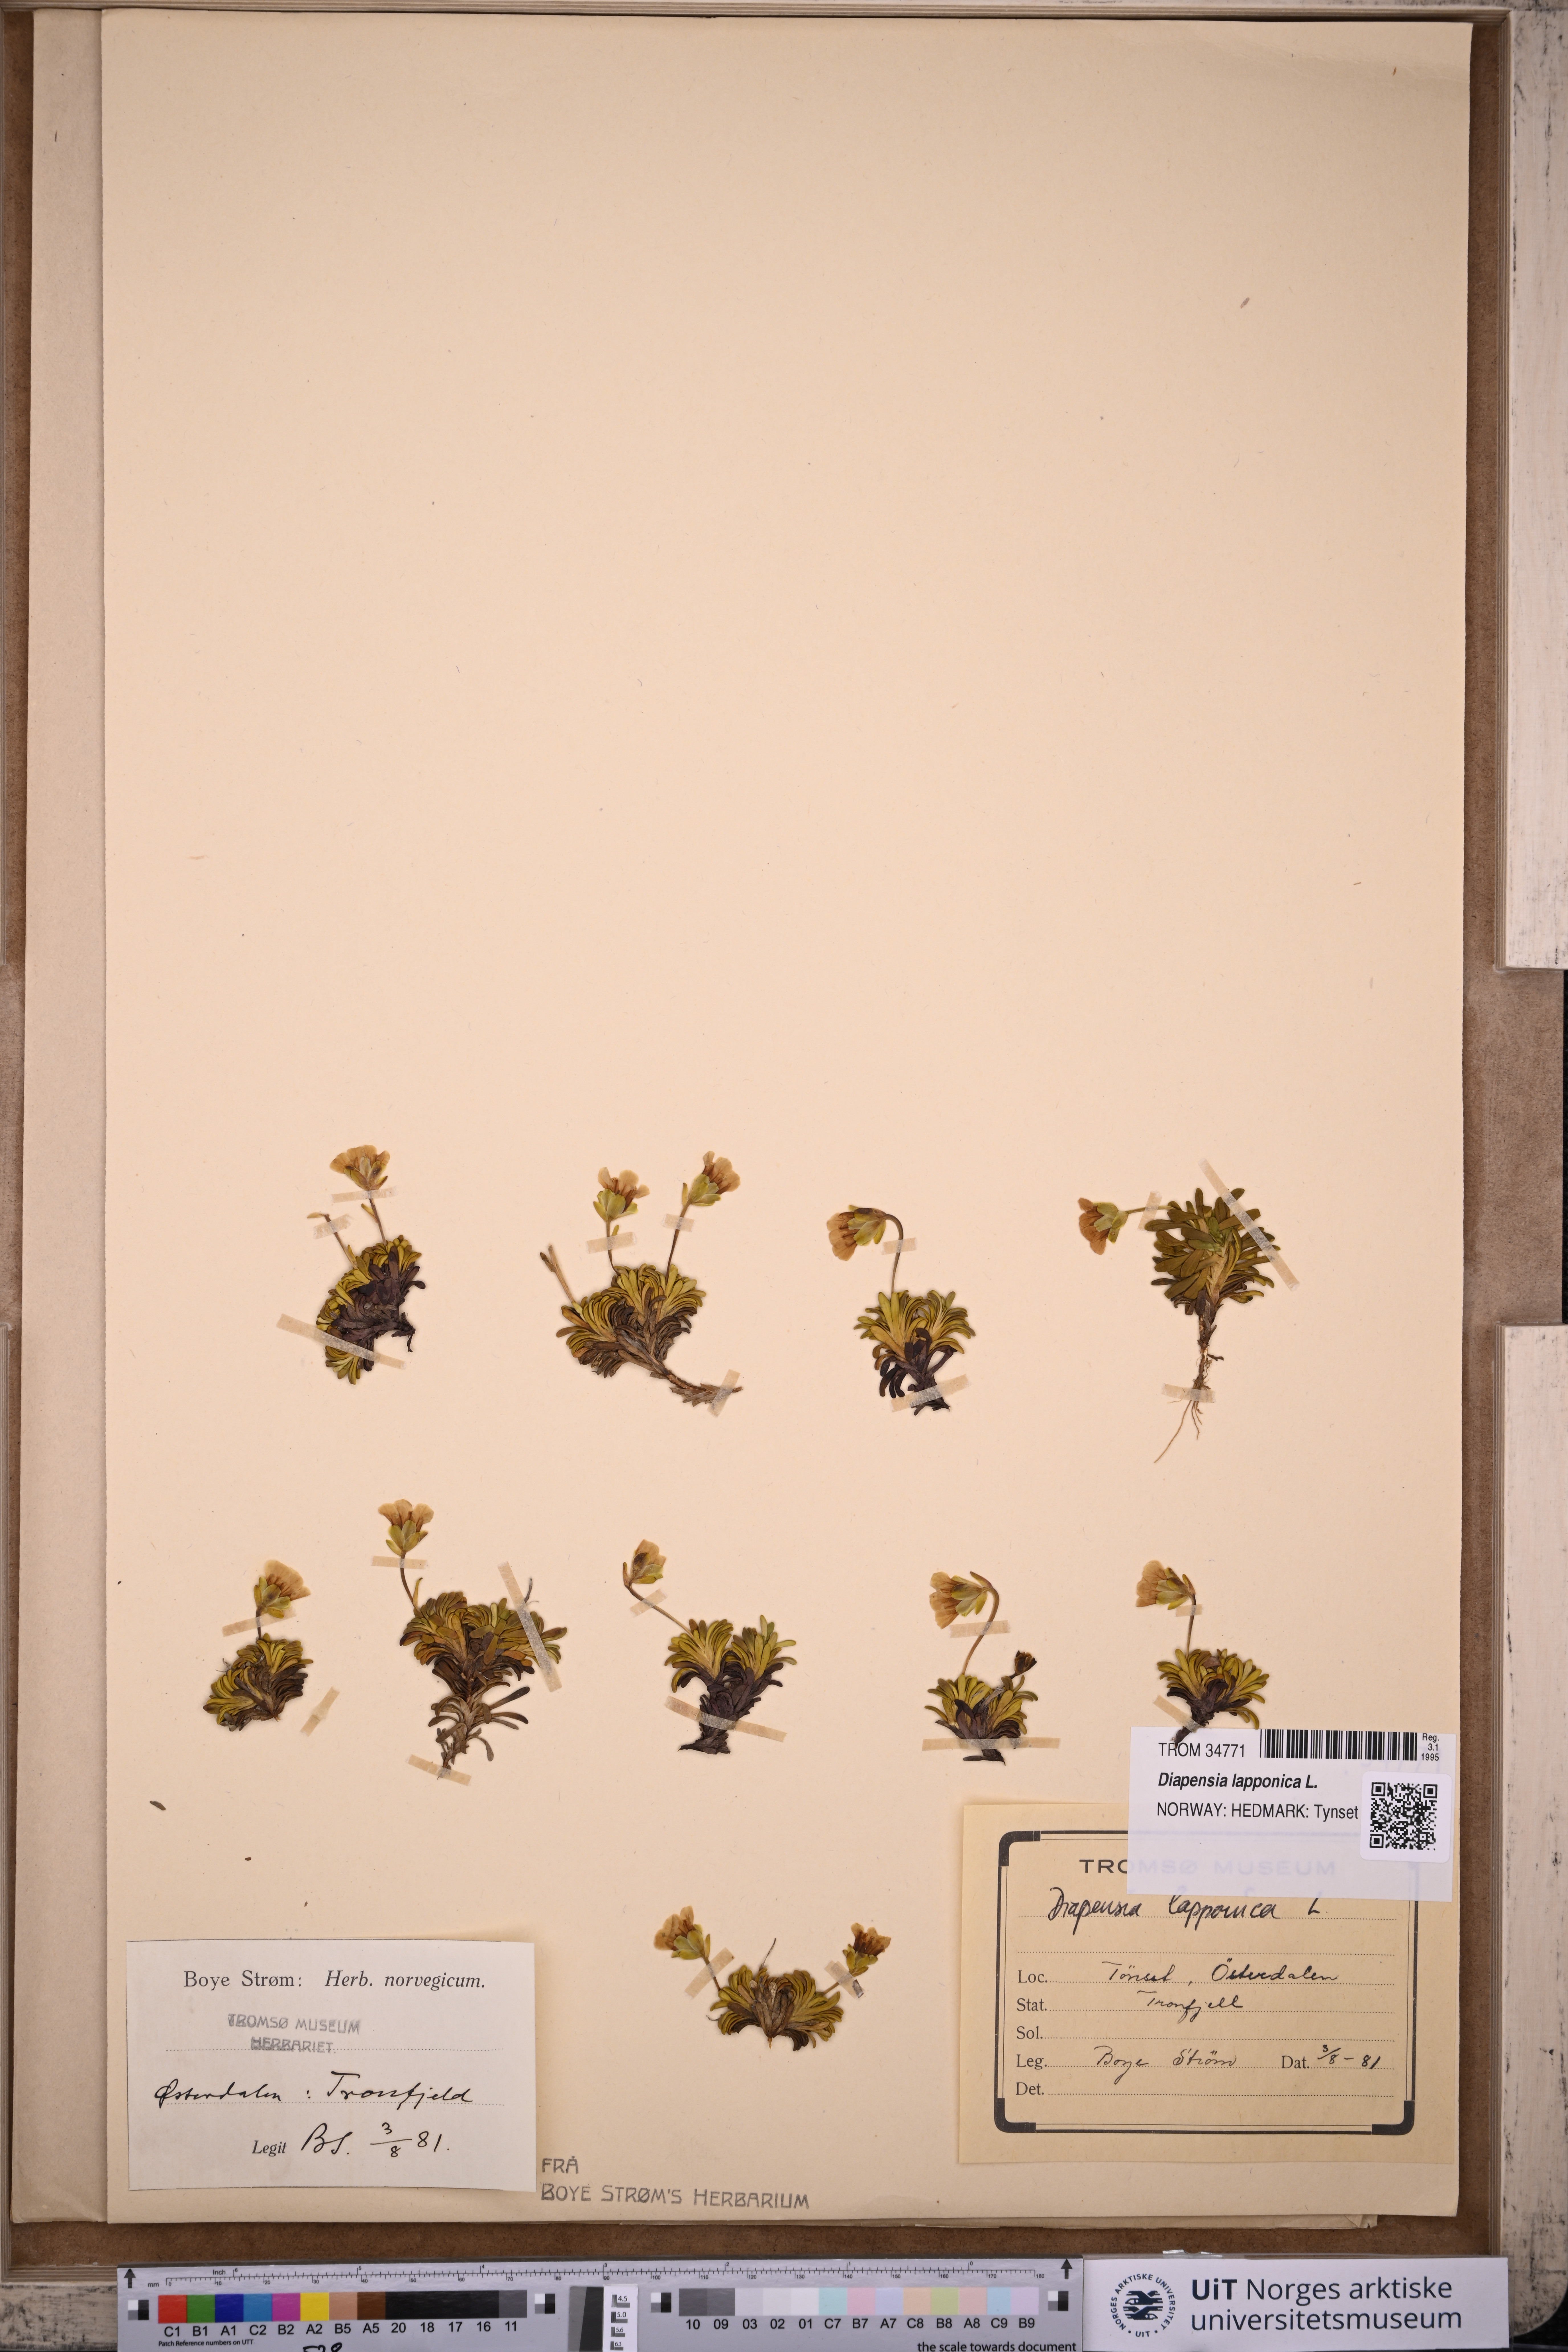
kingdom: Plantae
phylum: Tracheophyta
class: Magnoliopsida
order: Ericales
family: Diapensiaceae
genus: Diapensia
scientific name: Diapensia lapponica
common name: Diapensia
